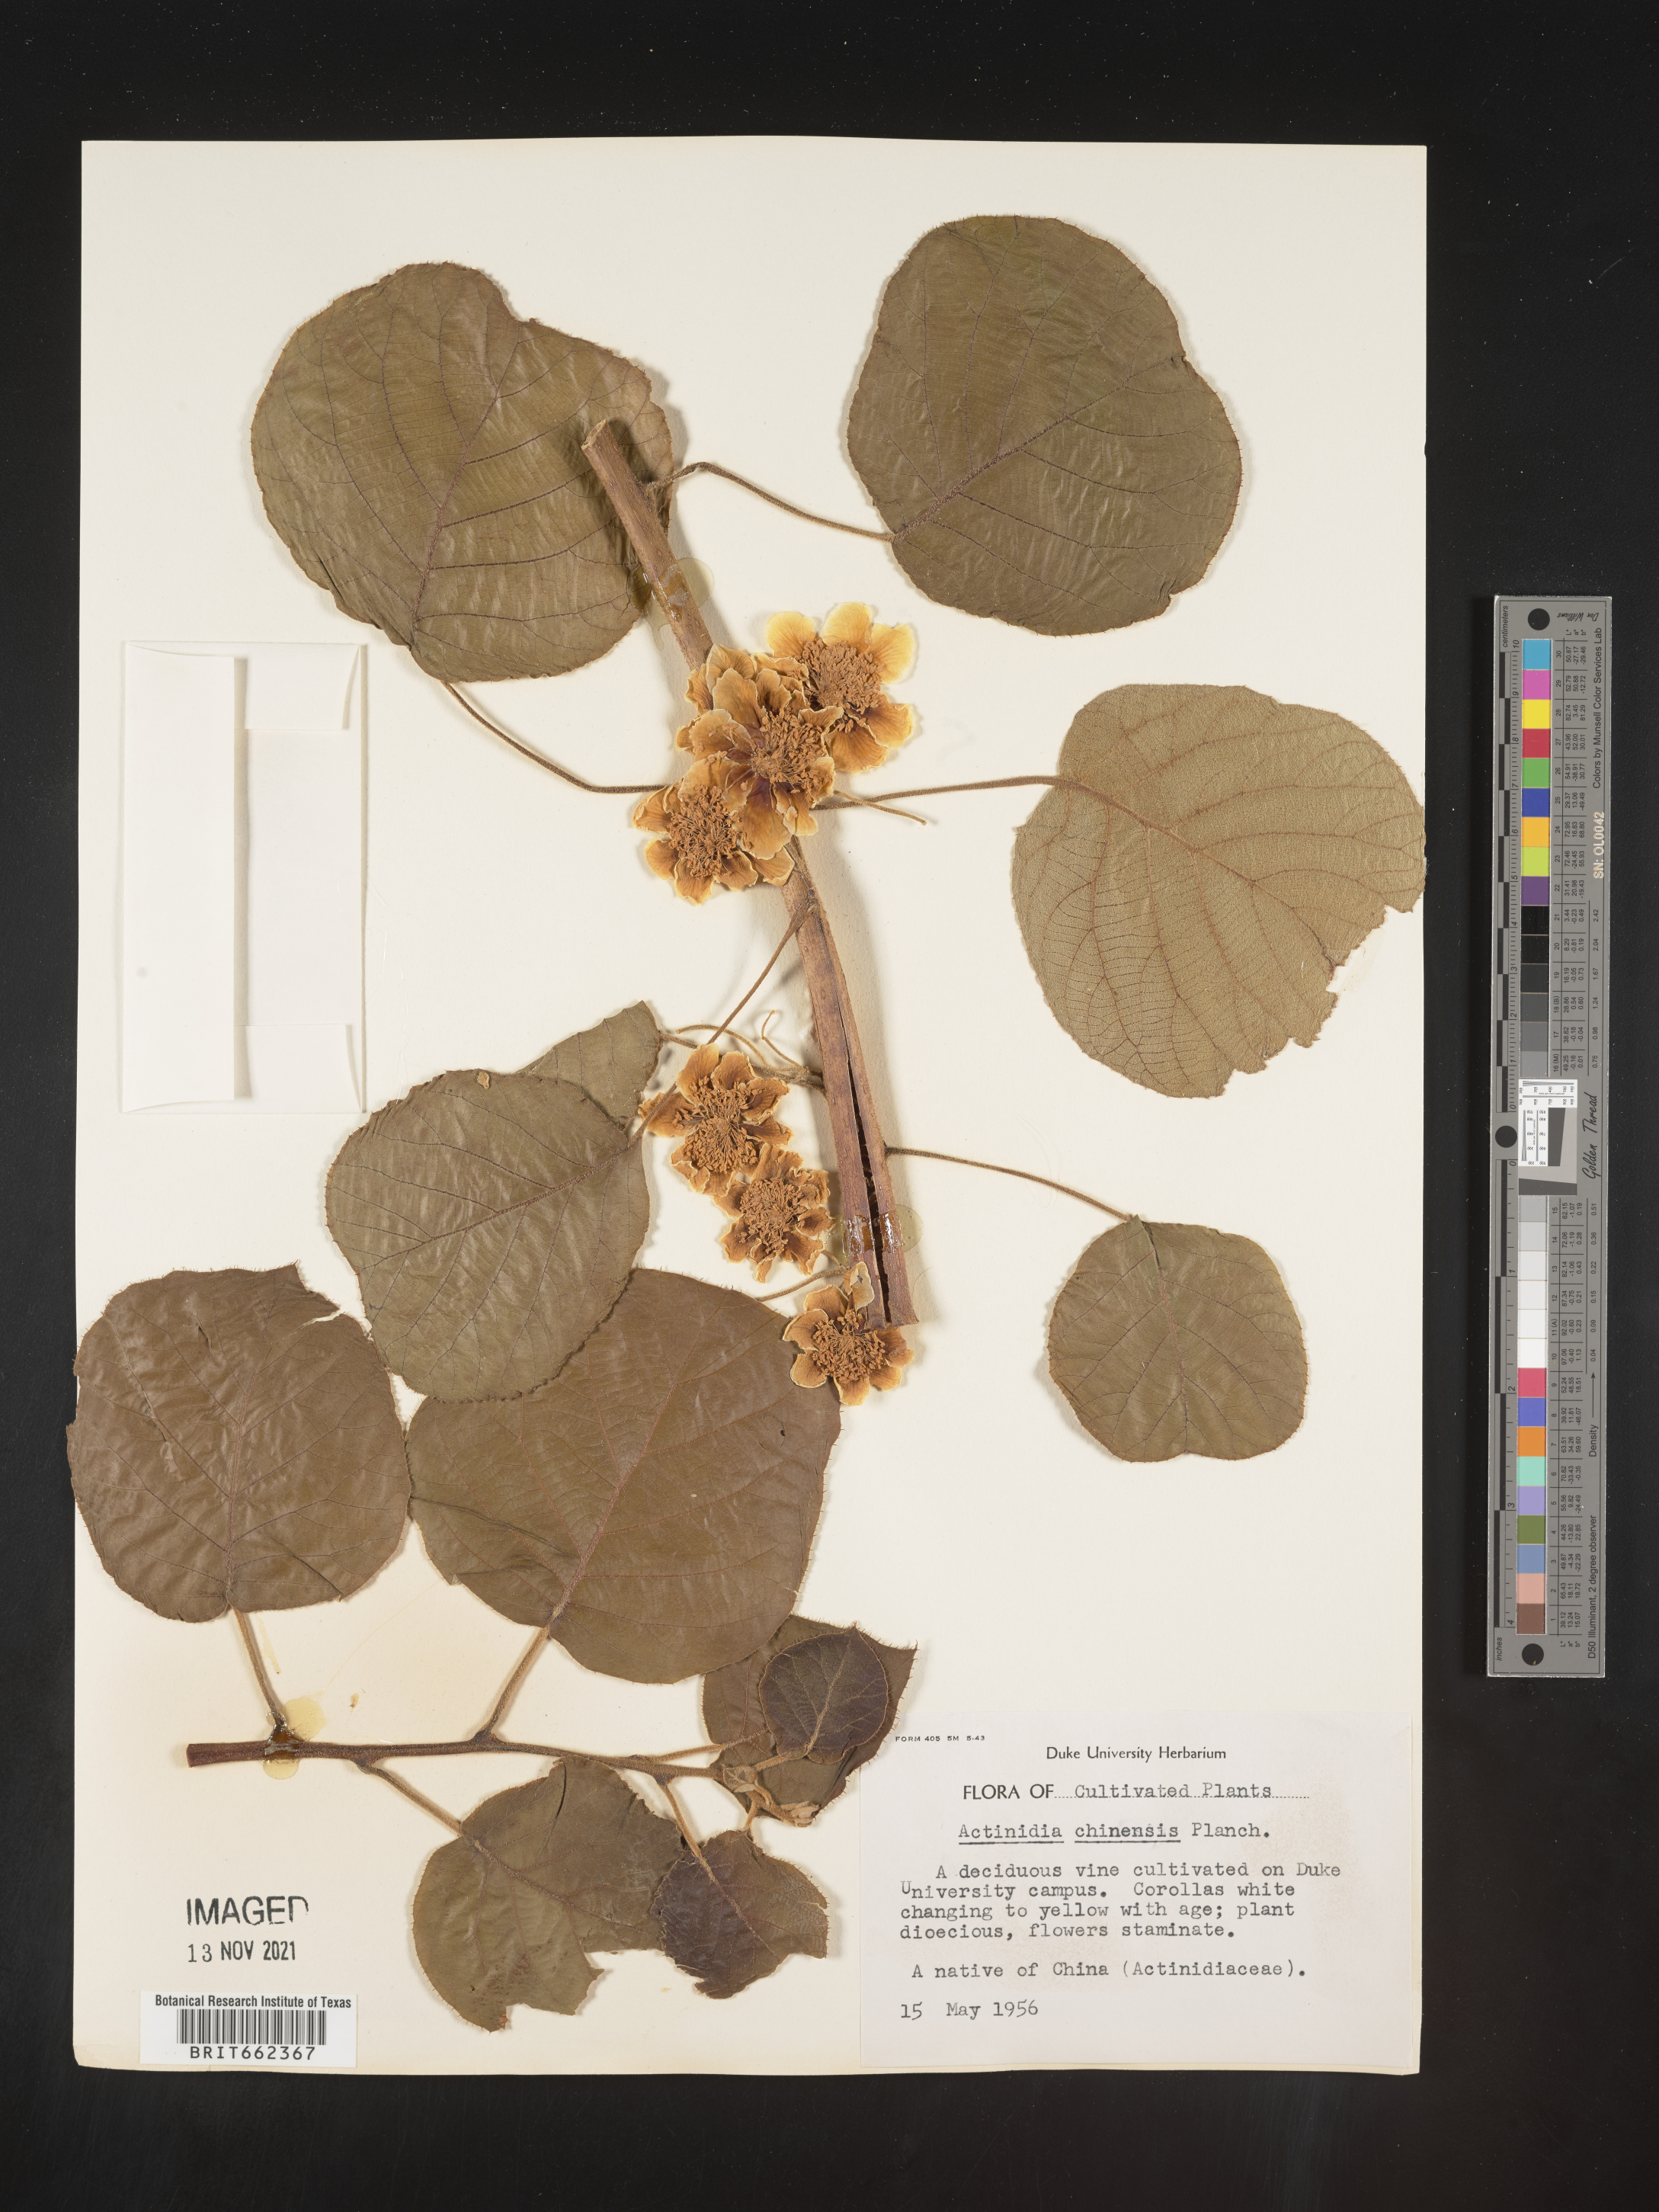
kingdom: Plantae
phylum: Tracheophyta
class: Magnoliopsida
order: Ericales
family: Actinidiaceae
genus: Actinidia
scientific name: Actinidia
